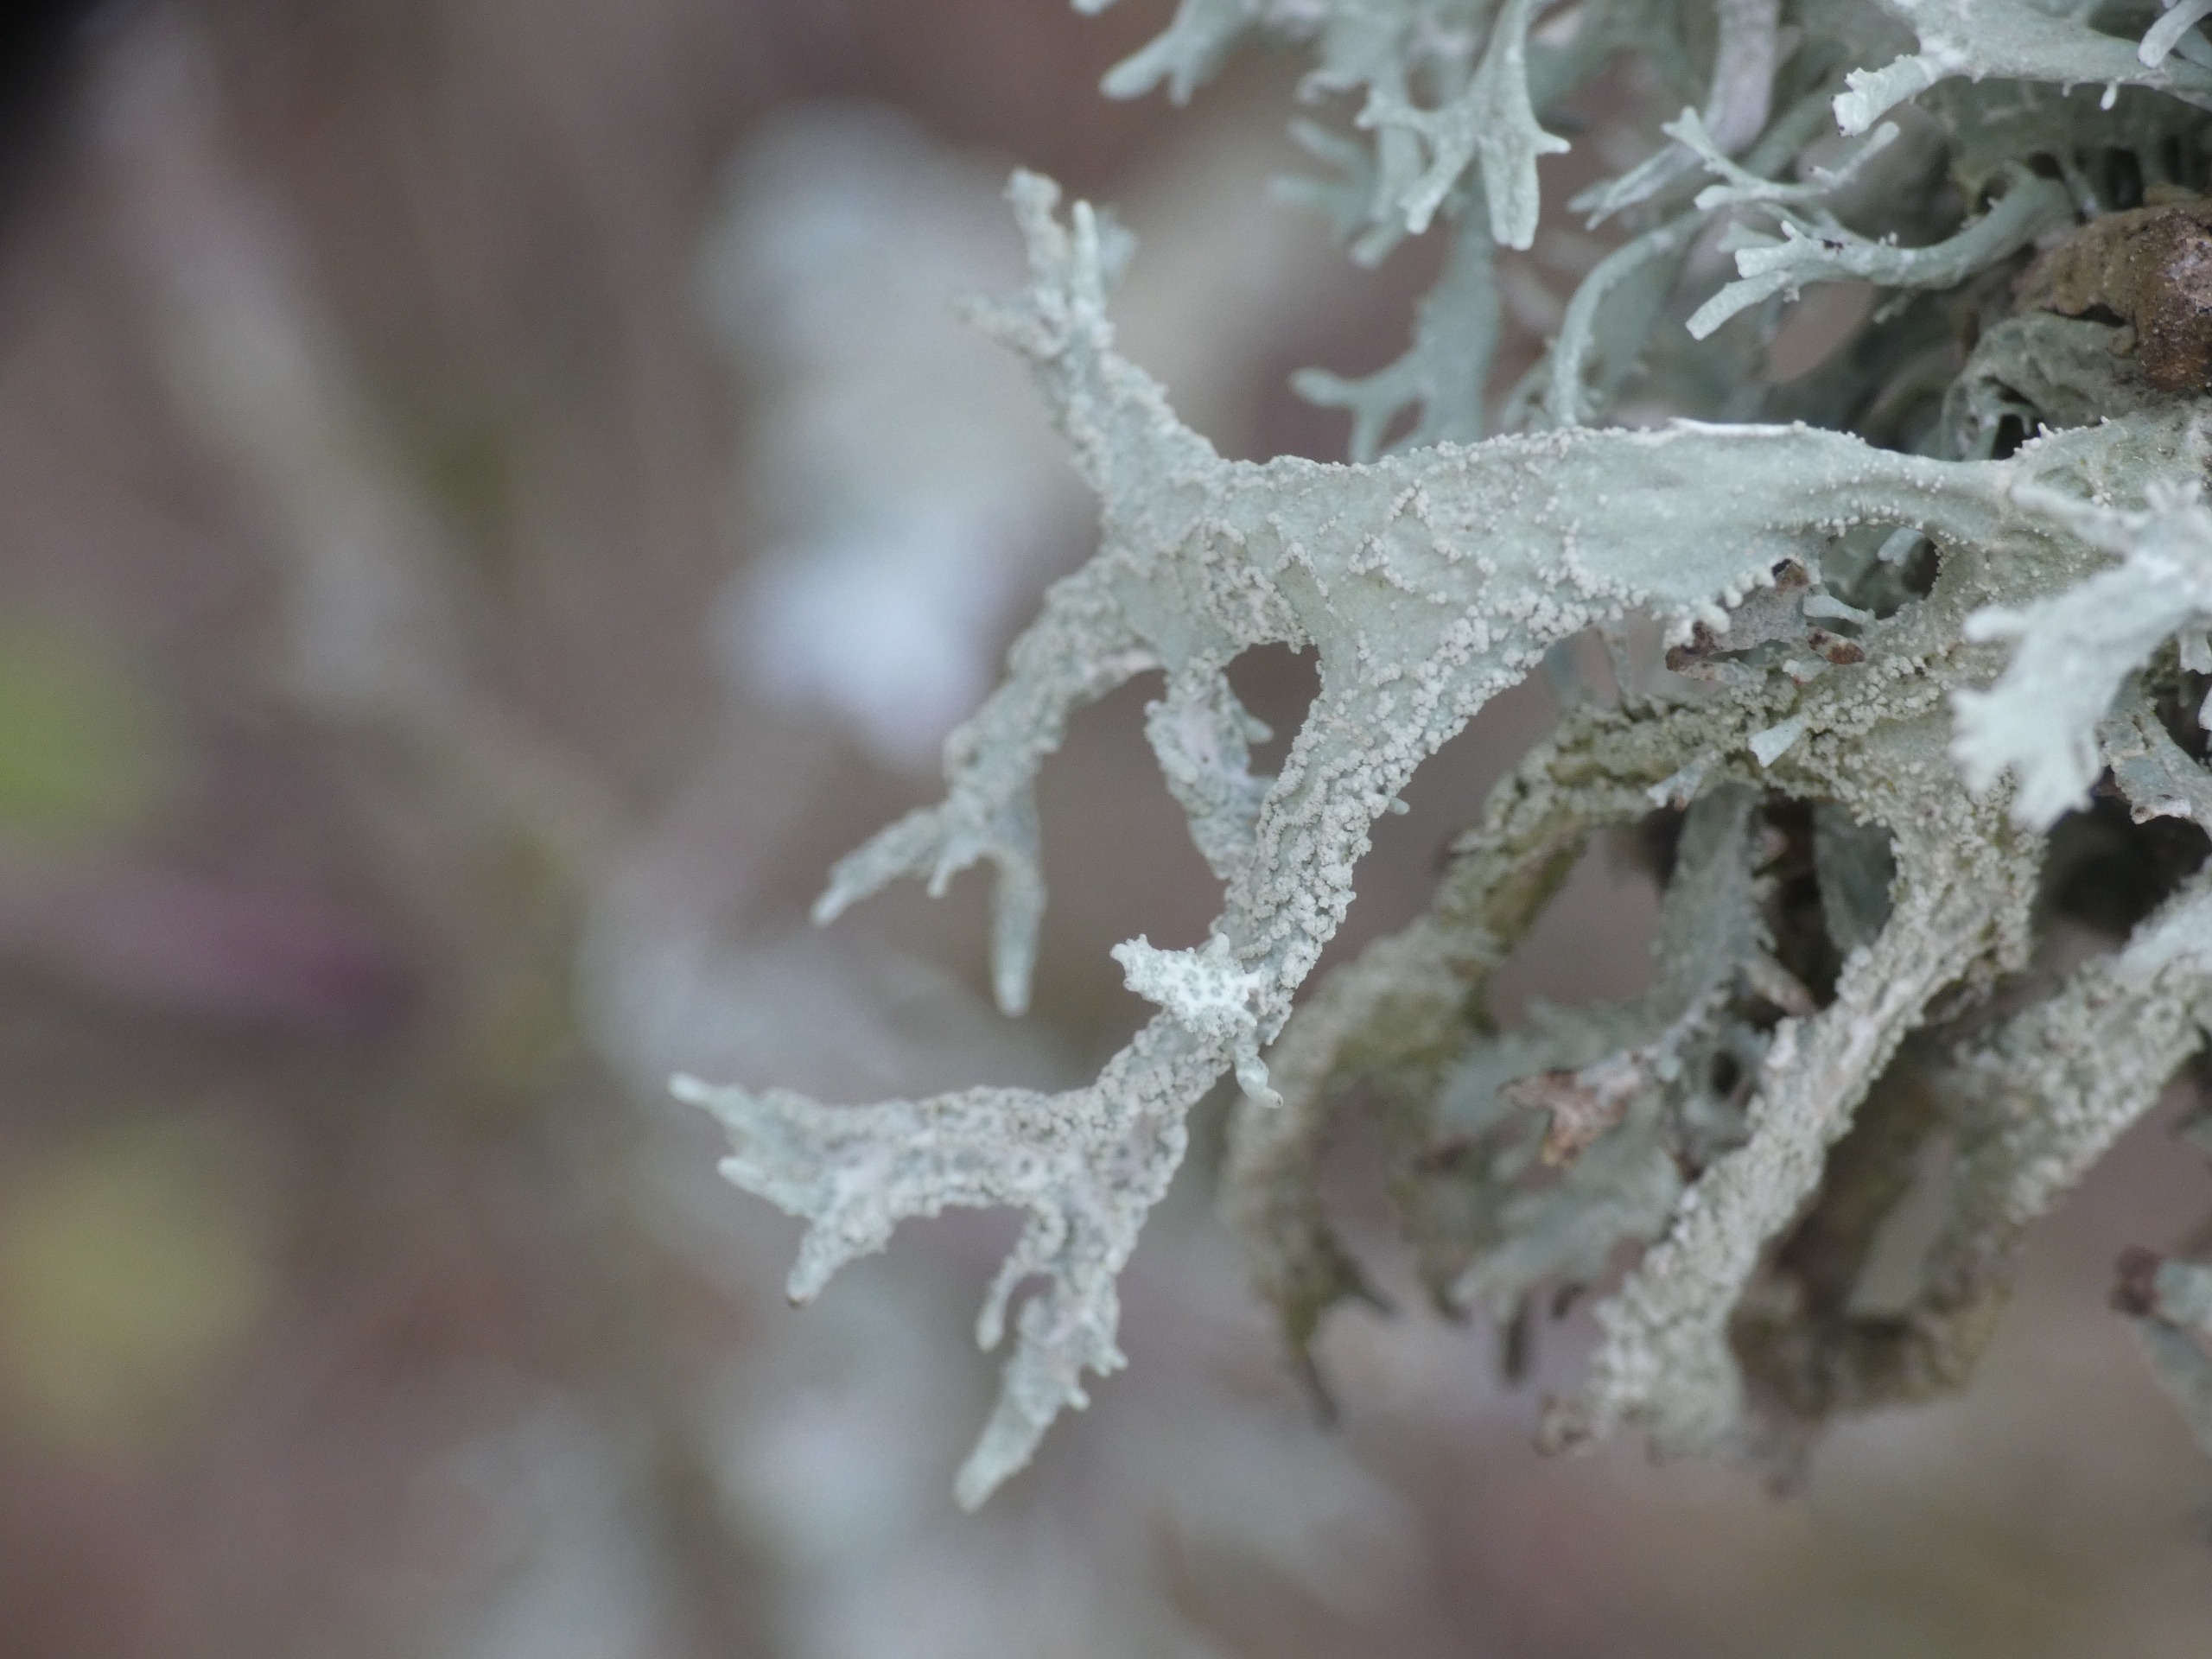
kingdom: Fungi
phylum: Ascomycota
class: Lecanoromycetes
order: Lecanorales
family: Parmeliaceae
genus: Evernia
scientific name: Evernia prunastri
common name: Almindelig slåenlav
